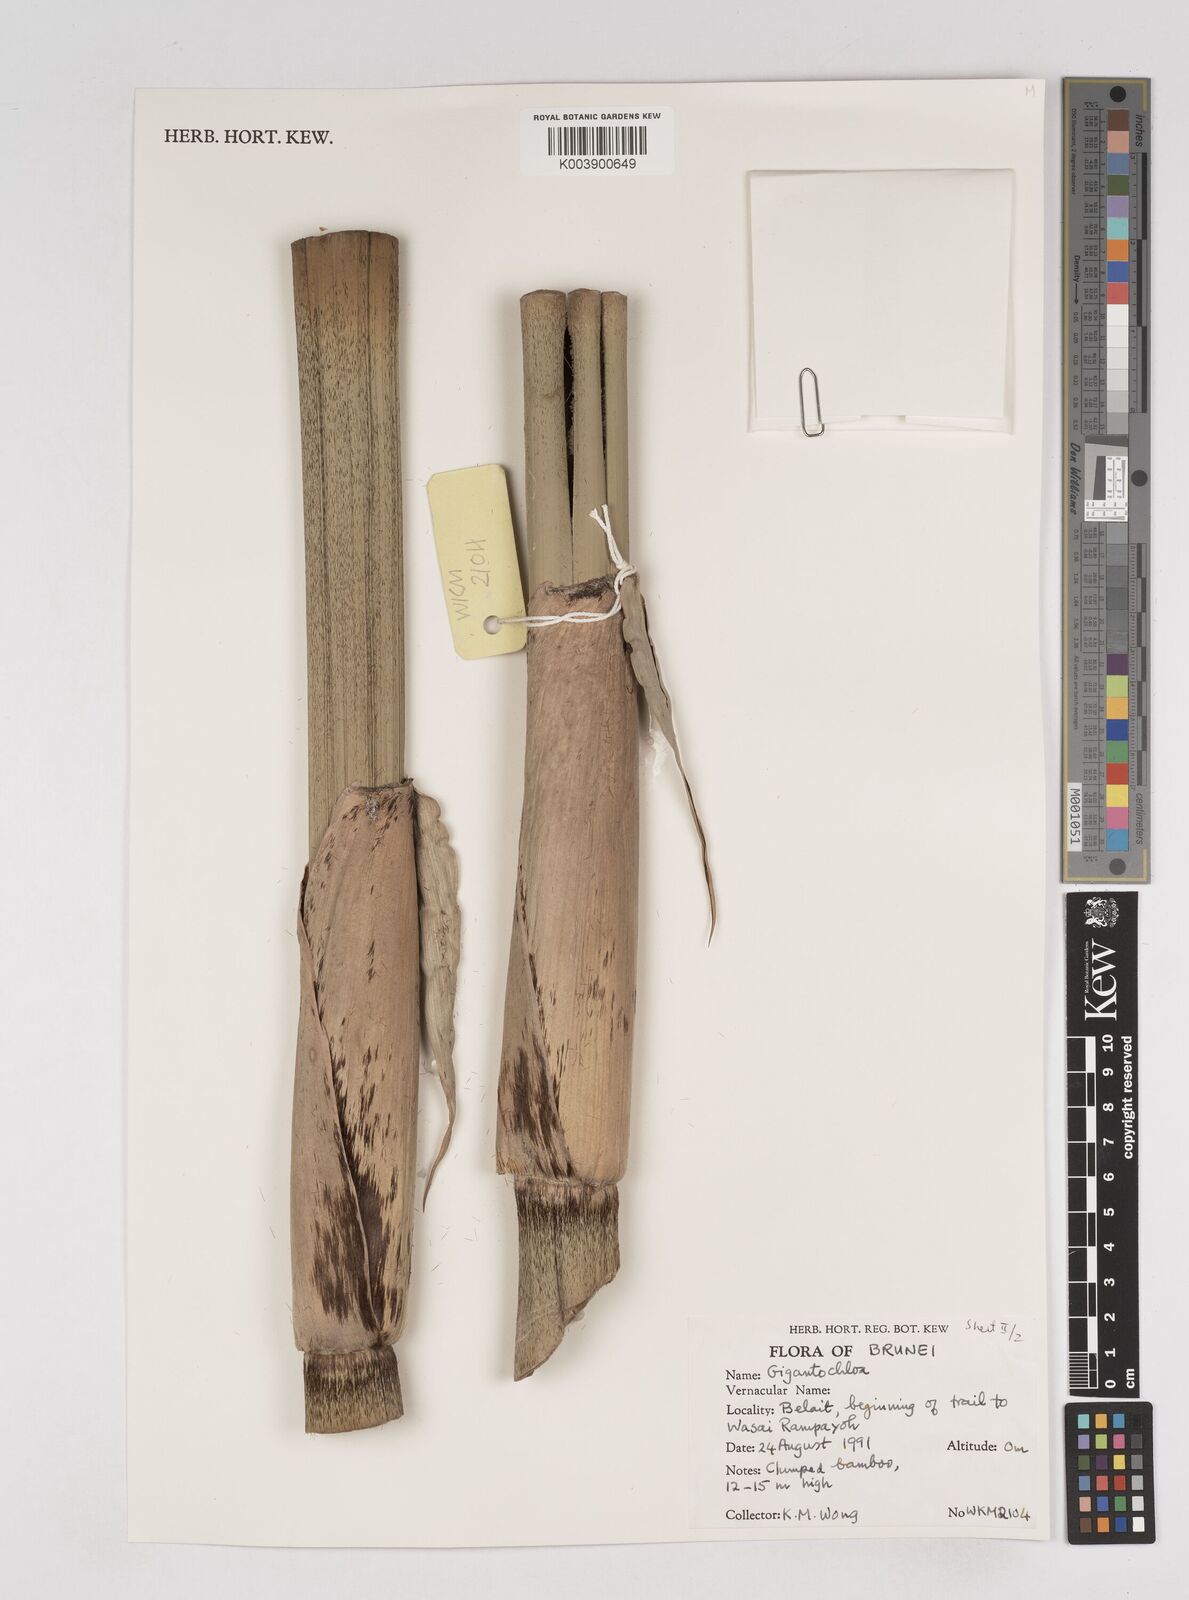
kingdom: Plantae
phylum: Tracheophyta
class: Liliopsida
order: Poales
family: Poaceae
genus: Gigantochloa
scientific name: Gigantochloa
